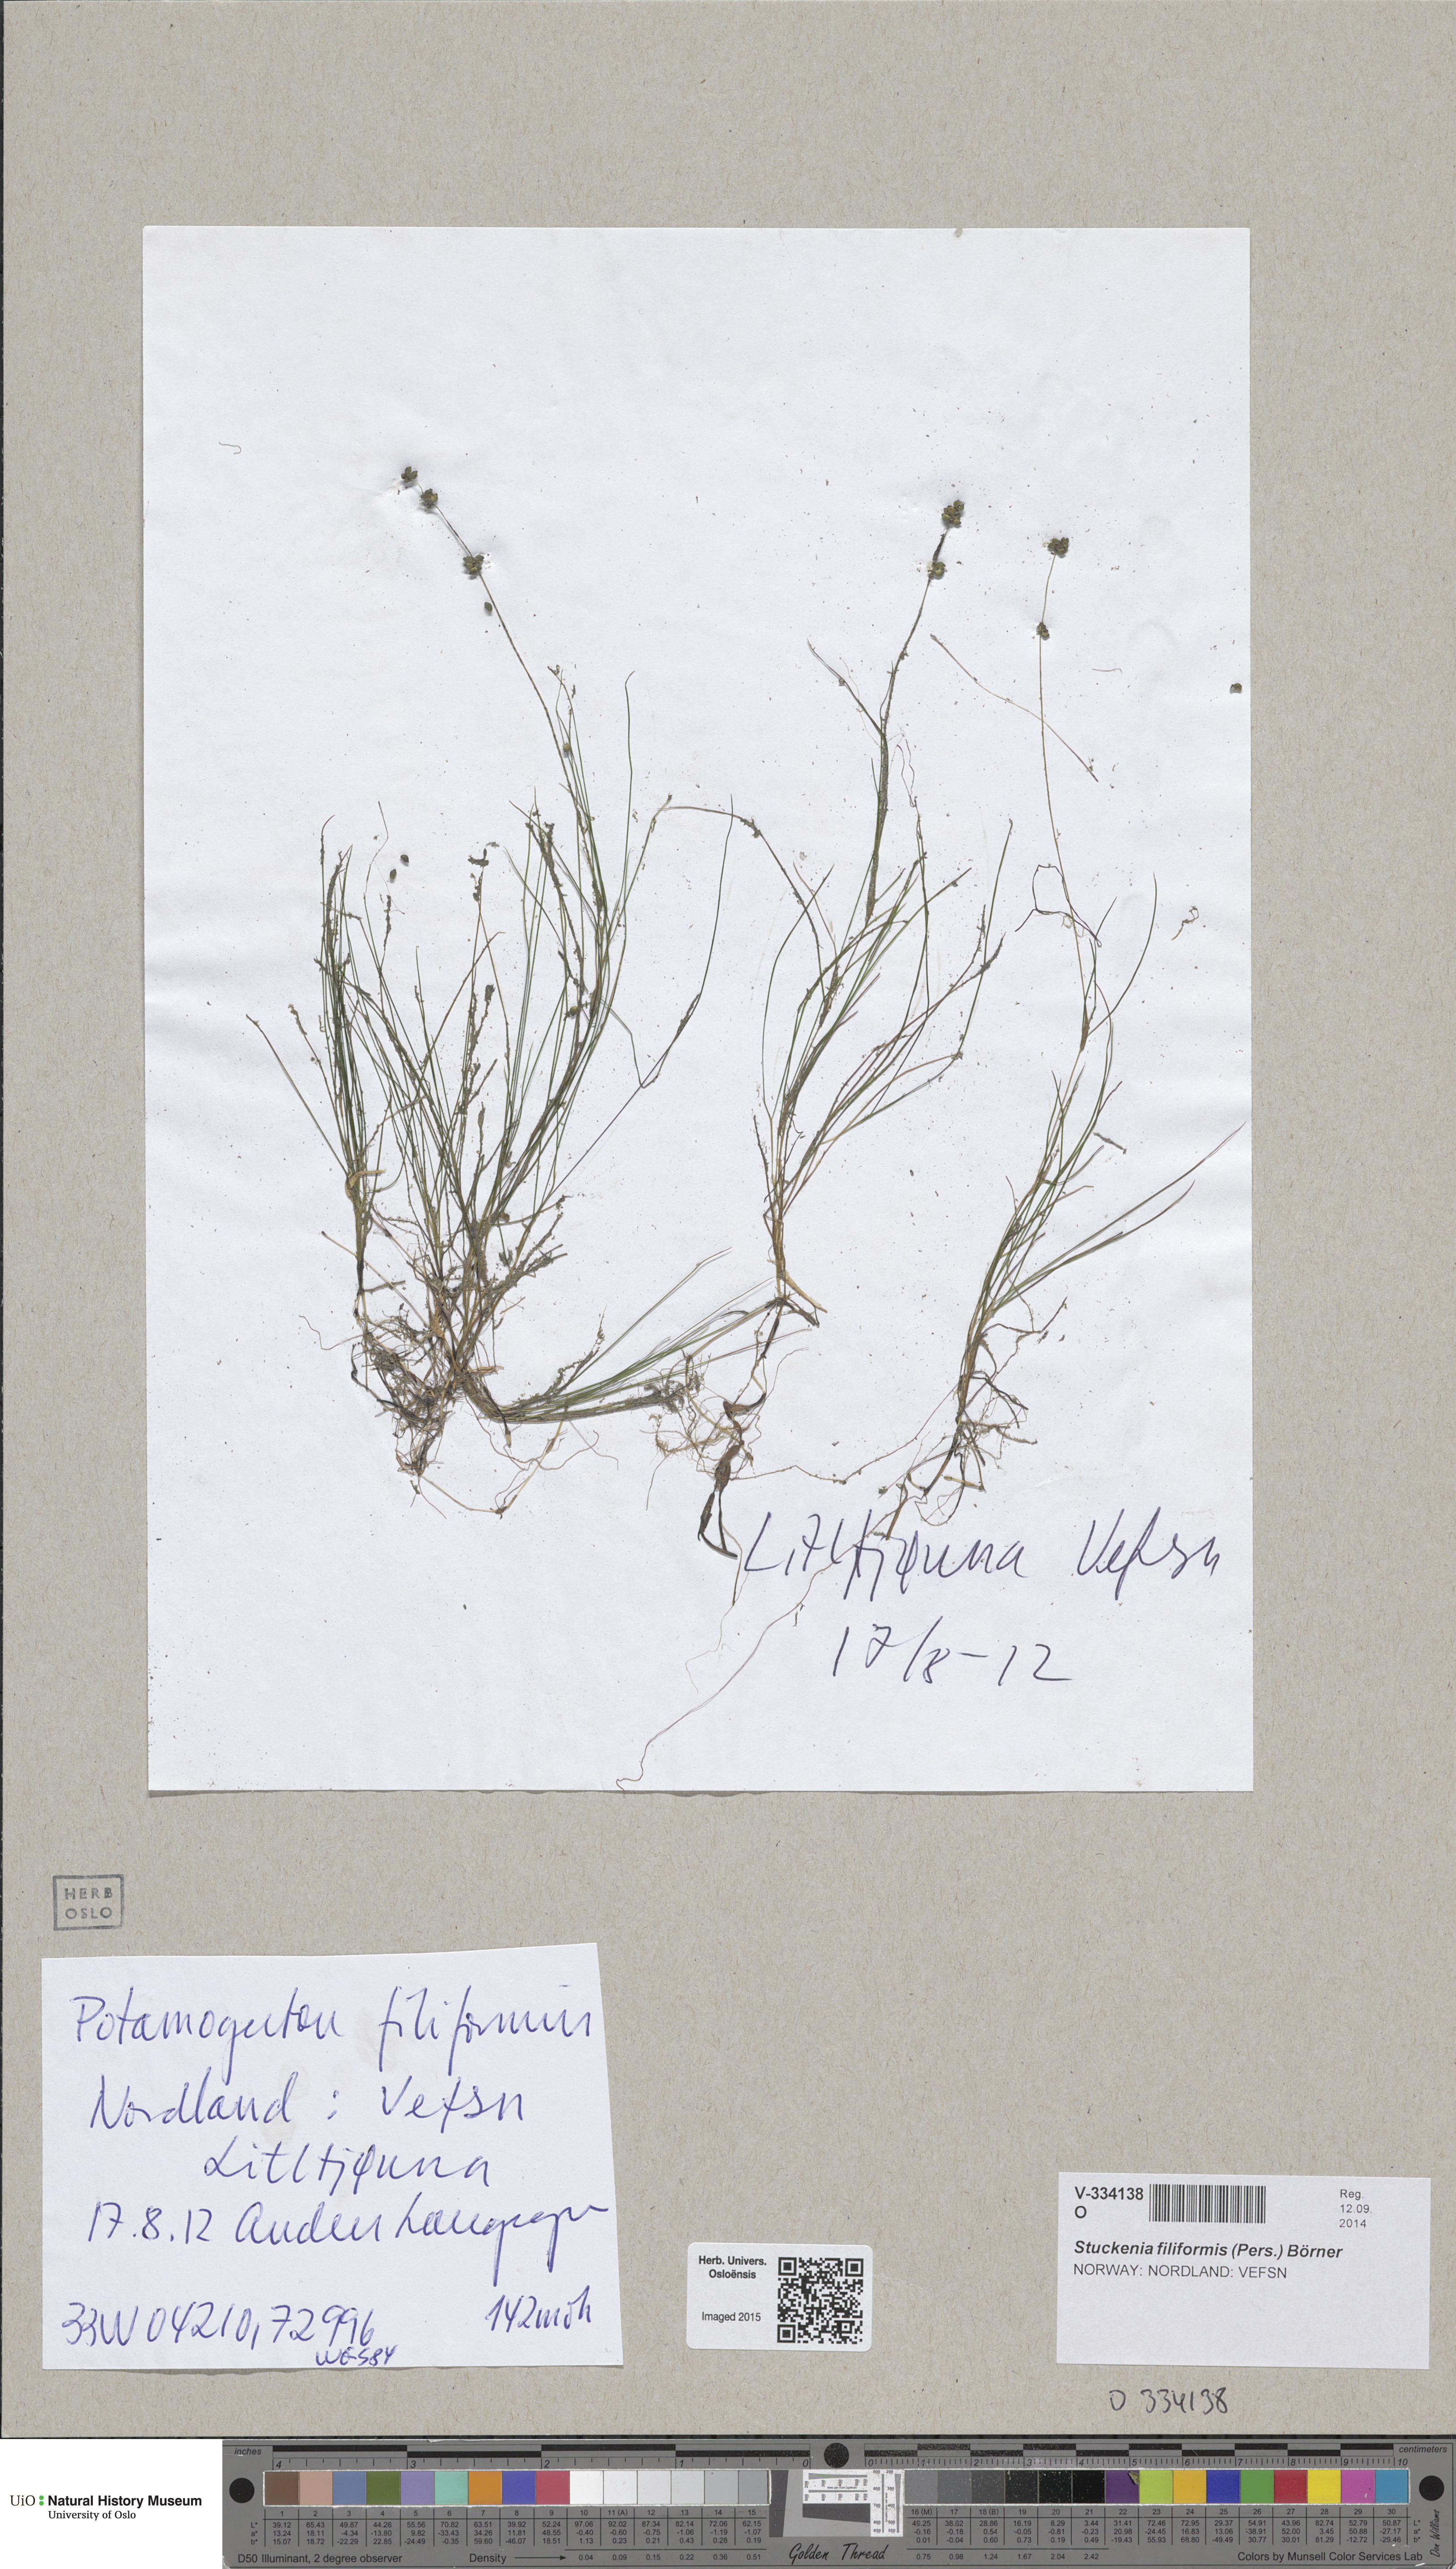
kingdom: Plantae
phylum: Tracheophyta
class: Liliopsida
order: Alismatales
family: Potamogetonaceae
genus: Stuckenia
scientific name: Stuckenia filiformis
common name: Alpine thread-leaved pondweed
